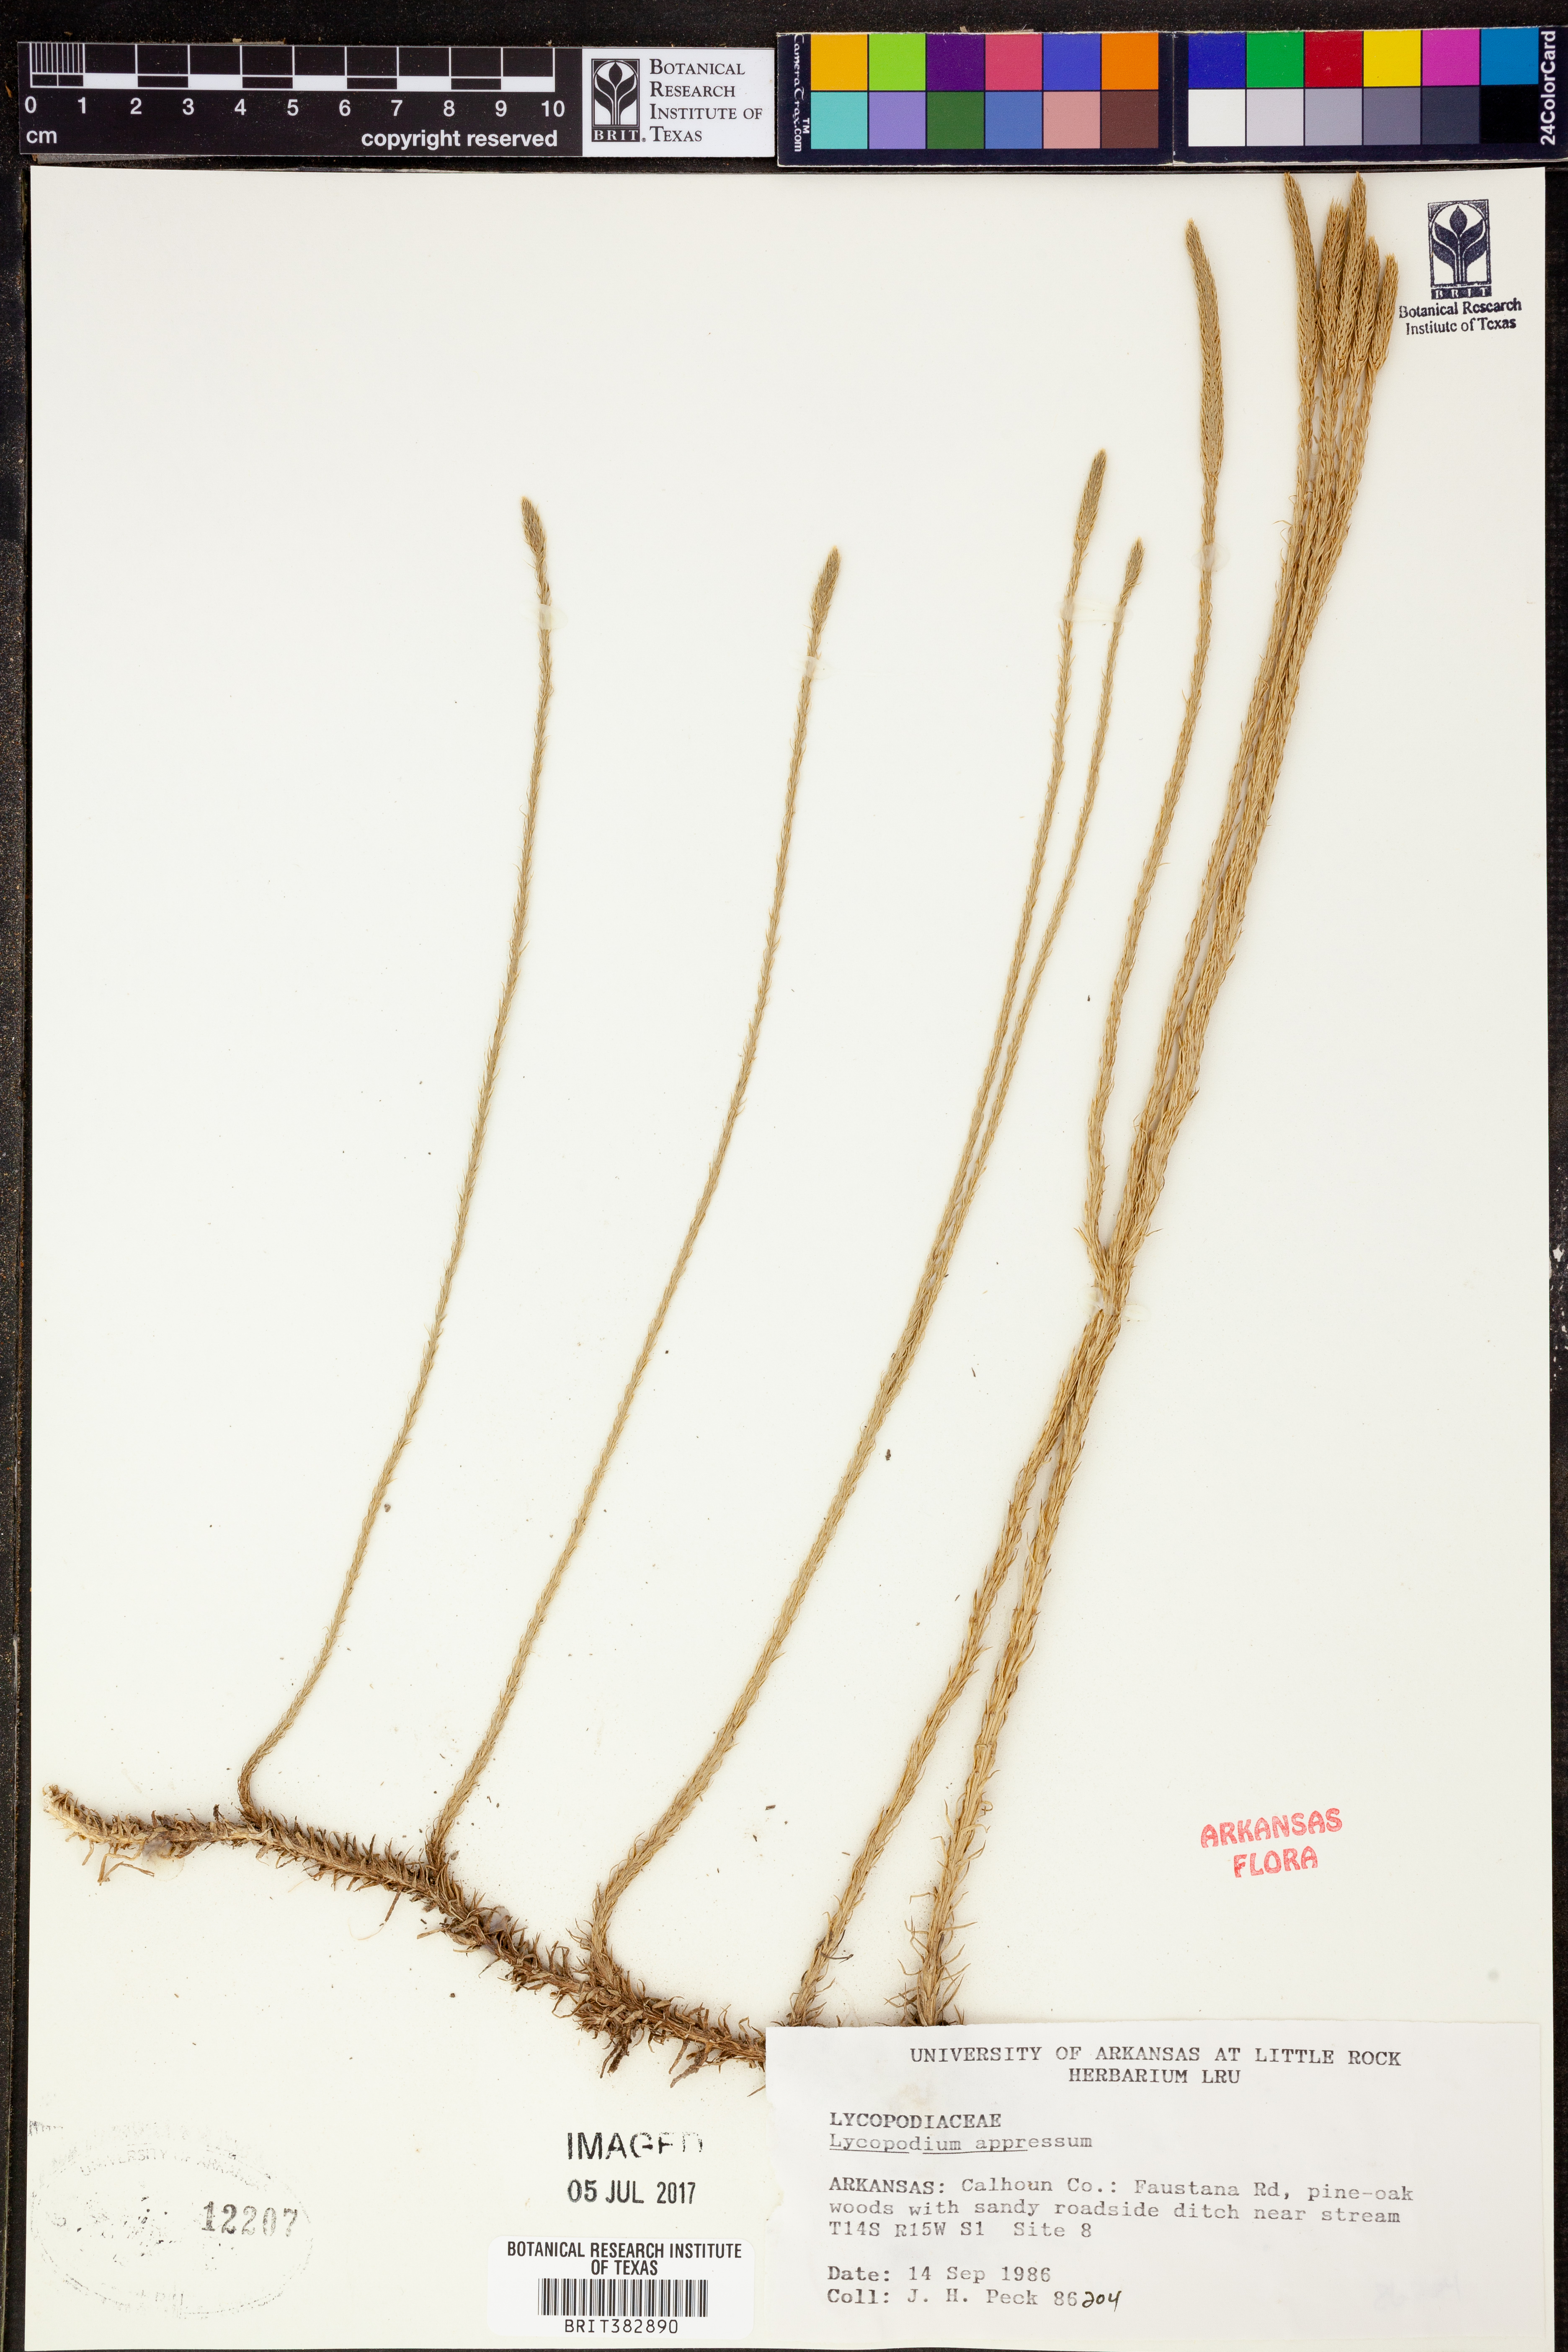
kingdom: Plantae
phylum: Tracheophyta
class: Lycopodiopsida
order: Lycopodiales
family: Lycopodiaceae
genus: Lycopodiella
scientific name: Lycopodiella appressa
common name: Appressed bog clubmoss
